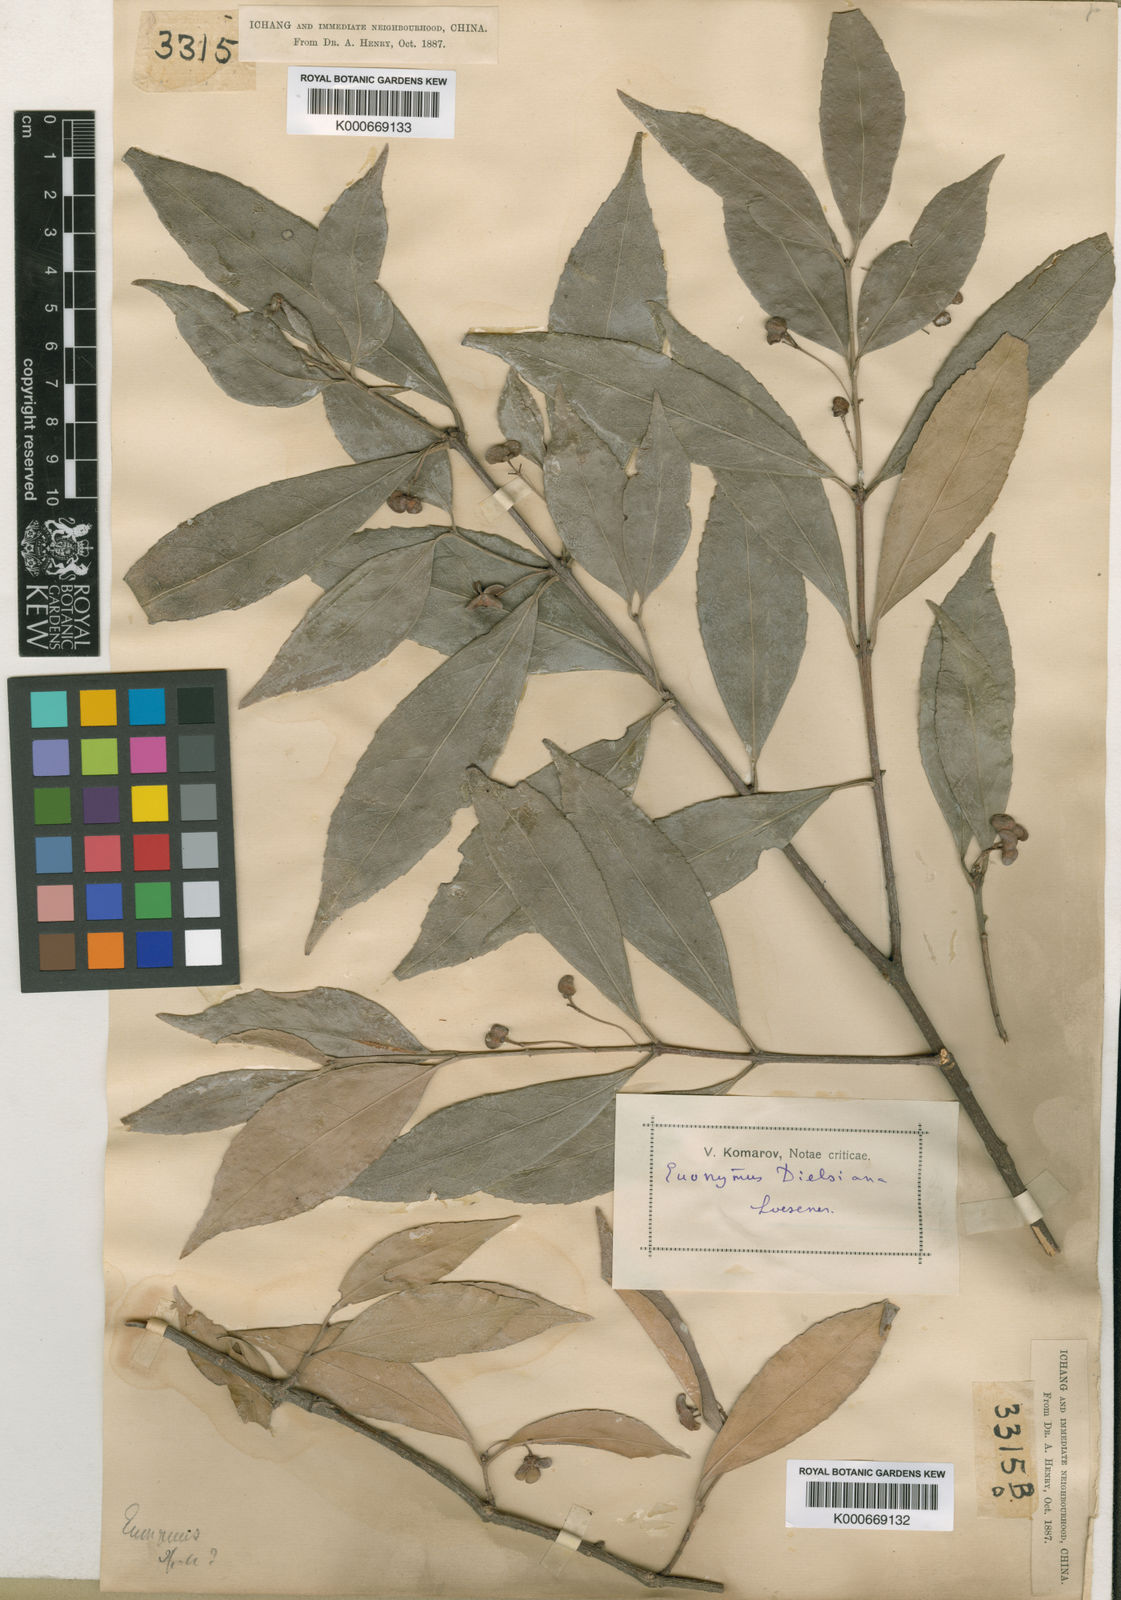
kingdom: Plantae
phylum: Tracheophyta
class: Magnoliopsida
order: Celastrales
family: Celastraceae
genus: Euonymus
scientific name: Euonymus dielsianus
